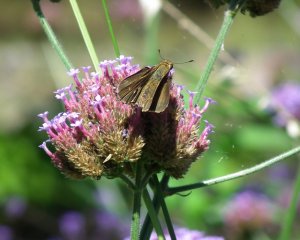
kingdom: Animalia
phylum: Arthropoda
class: Insecta
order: Lepidoptera
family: Hesperiidae
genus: Euphyes
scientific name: Euphyes vestris
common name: Dun Skipper
